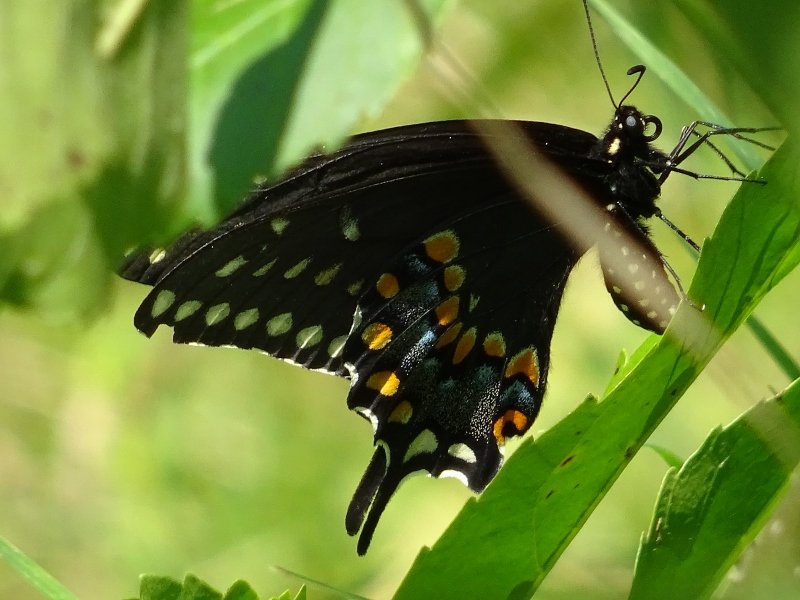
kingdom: Animalia
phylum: Arthropoda
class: Insecta
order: Lepidoptera
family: Papilionidae
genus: Papilio
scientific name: Papilio polyxenes
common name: Black Swallowtail
